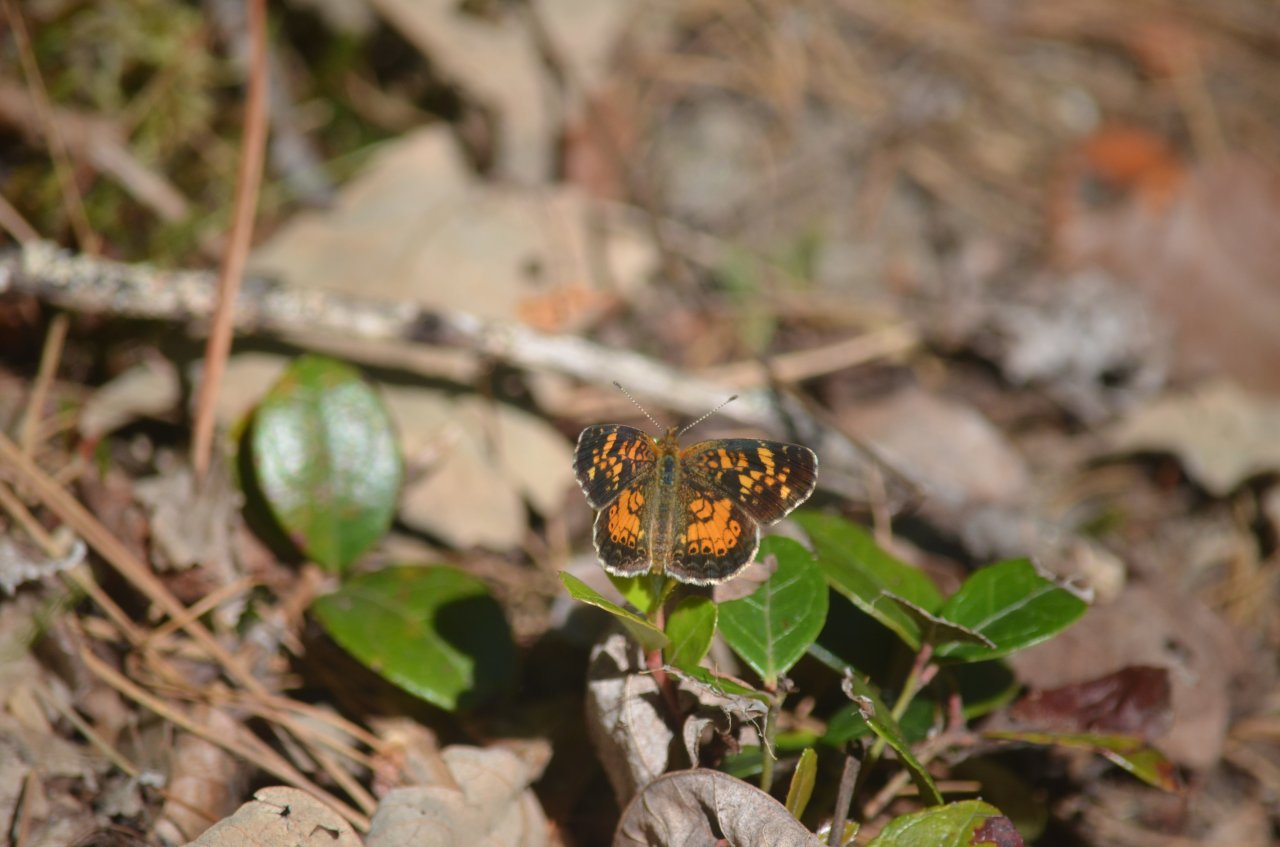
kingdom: Animalia
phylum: Arthropoda
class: Insecta
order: Lepidoptera
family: Nymphalidae
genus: Phyciodes
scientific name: Phyciodes tharos
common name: Northern Crescent
